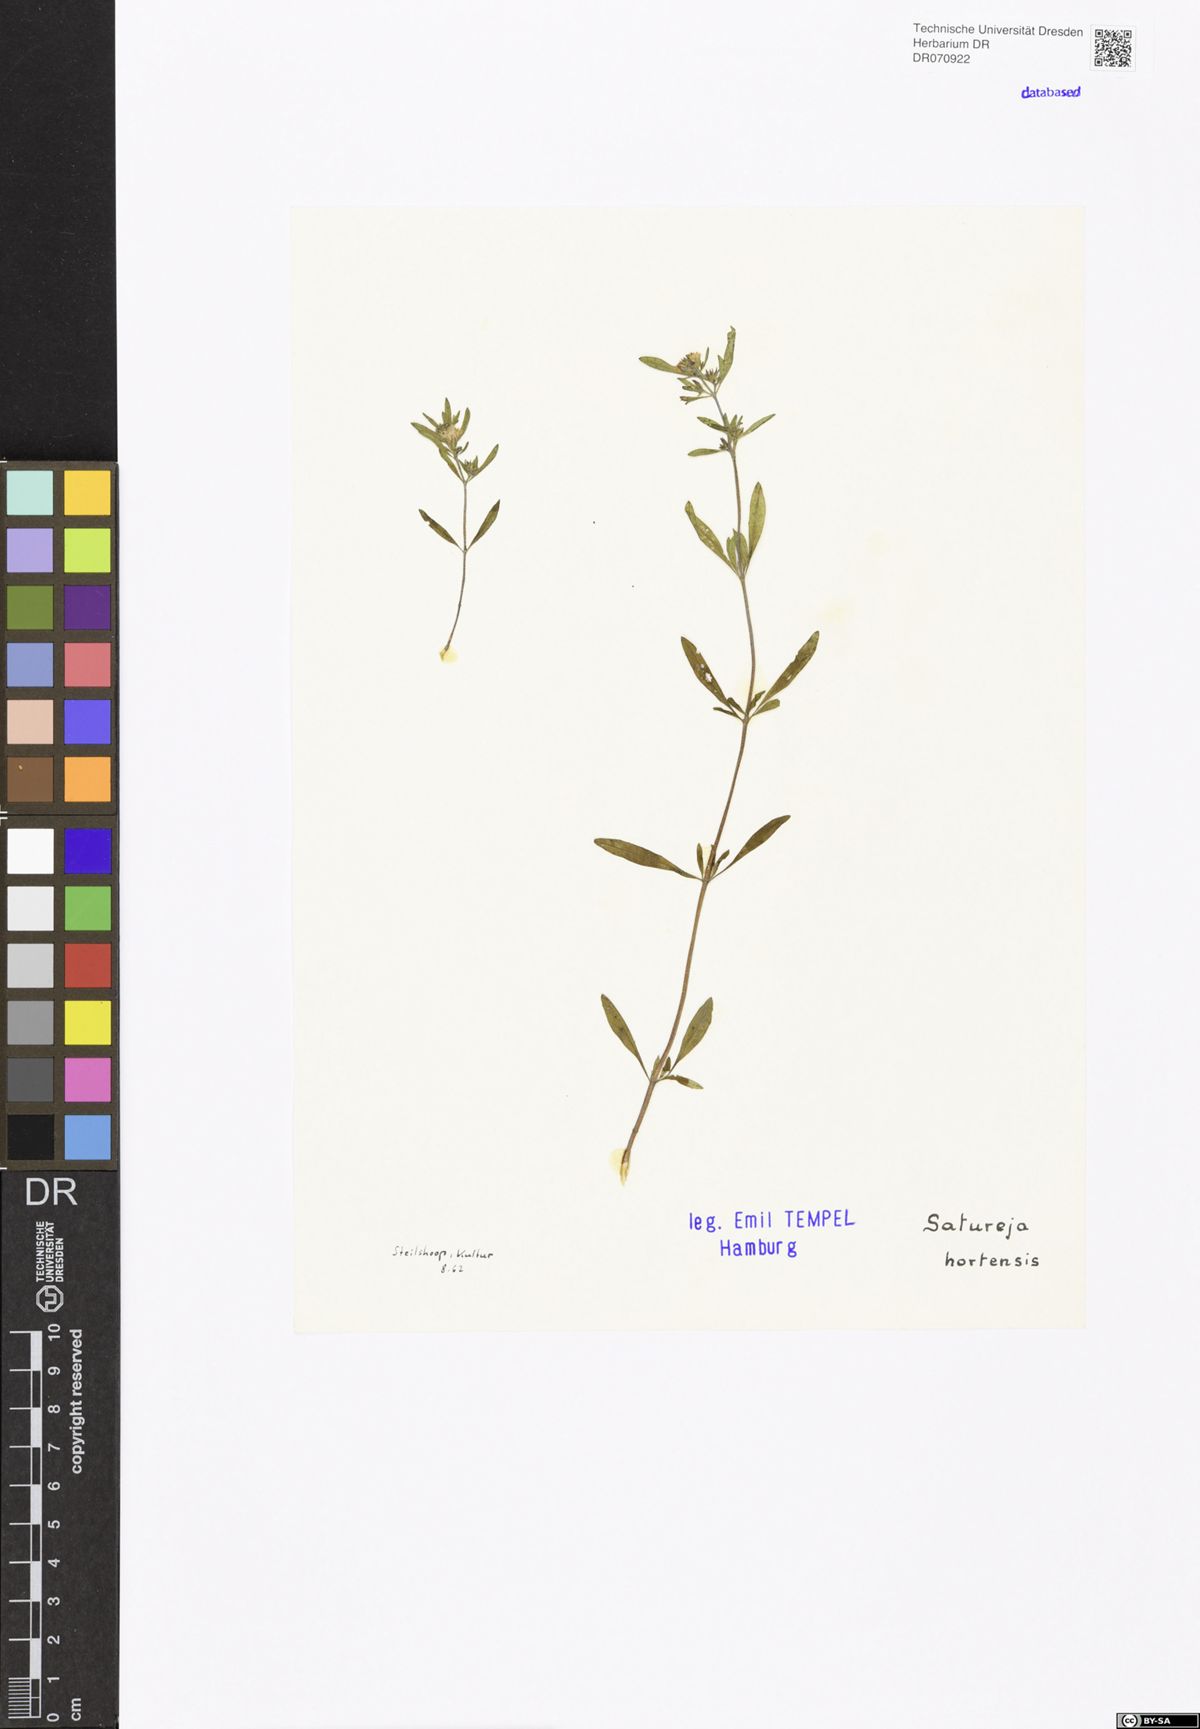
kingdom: Plantae
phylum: Tracheophyta
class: Magnoliopsida
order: Lamiales
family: Lamiaceae
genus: Satureja
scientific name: Satureja hortensis
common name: Summer savory
